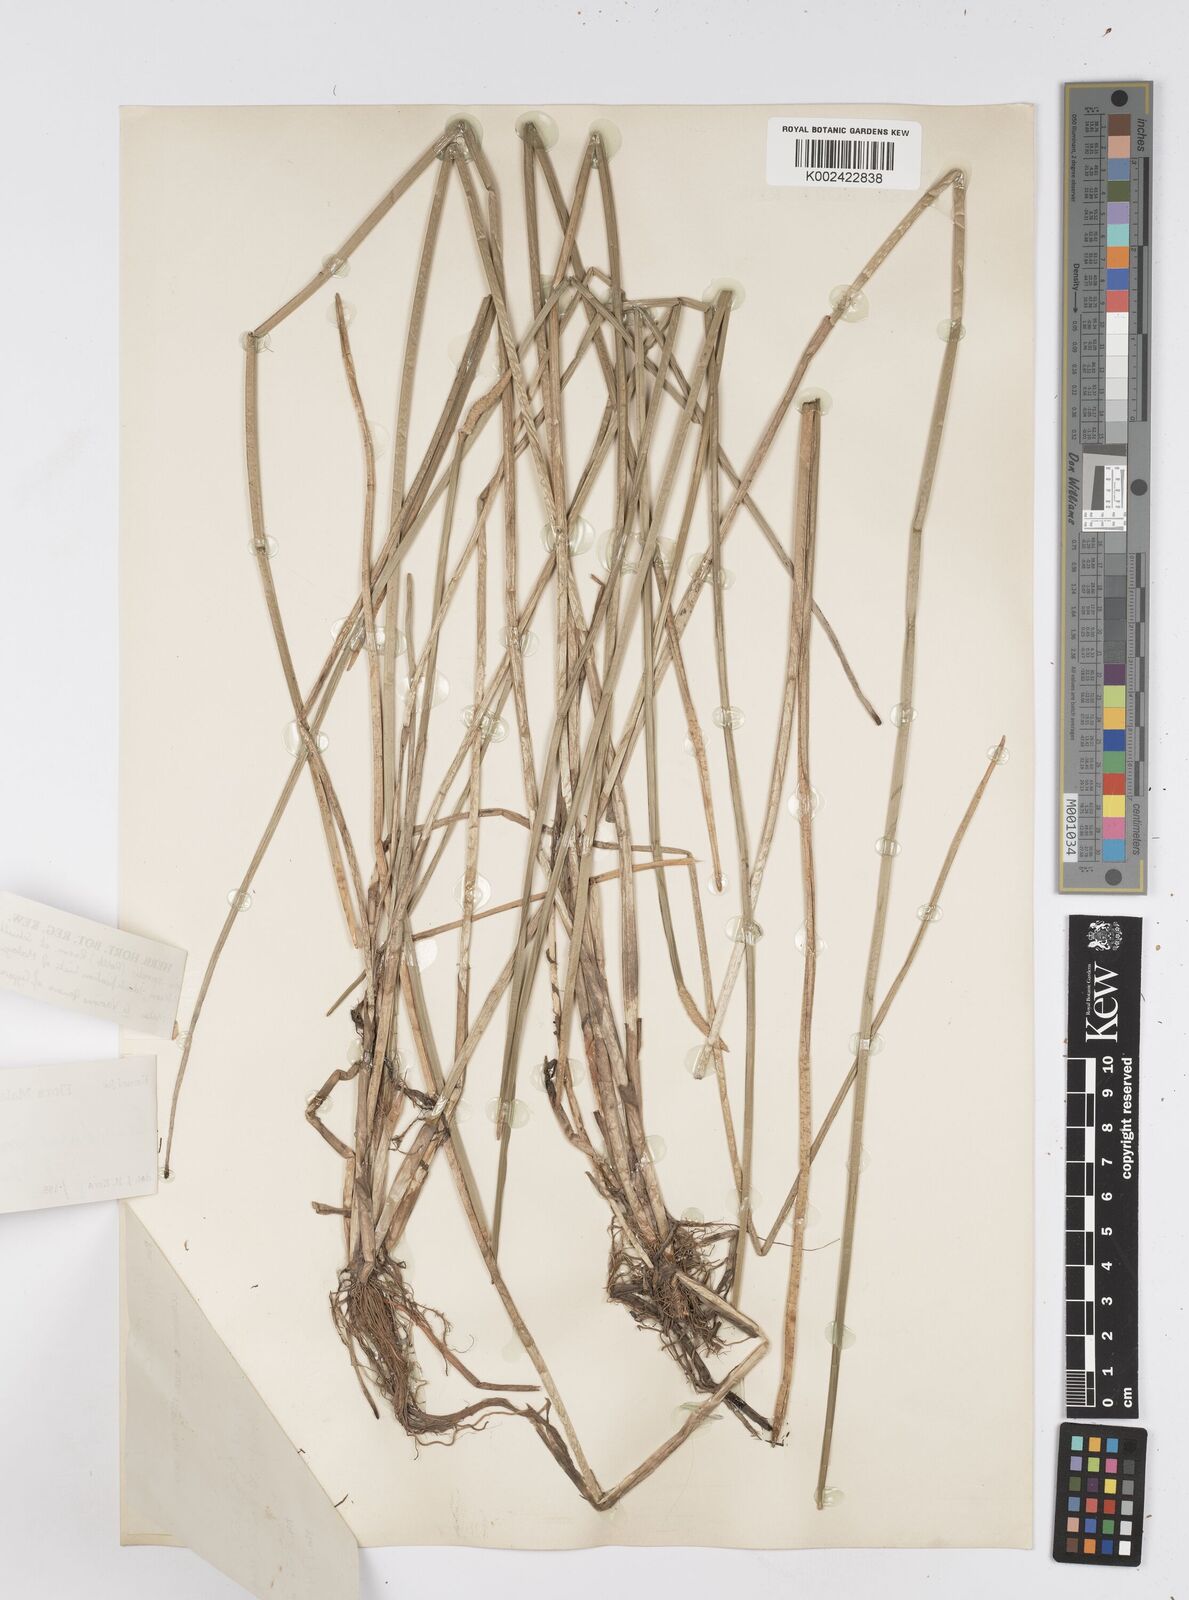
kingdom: Plantae
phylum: Tracheophyta
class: Liliopsida
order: Poales
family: Cyperaceae
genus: Eleocharis
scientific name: Eleocharis spiralis
